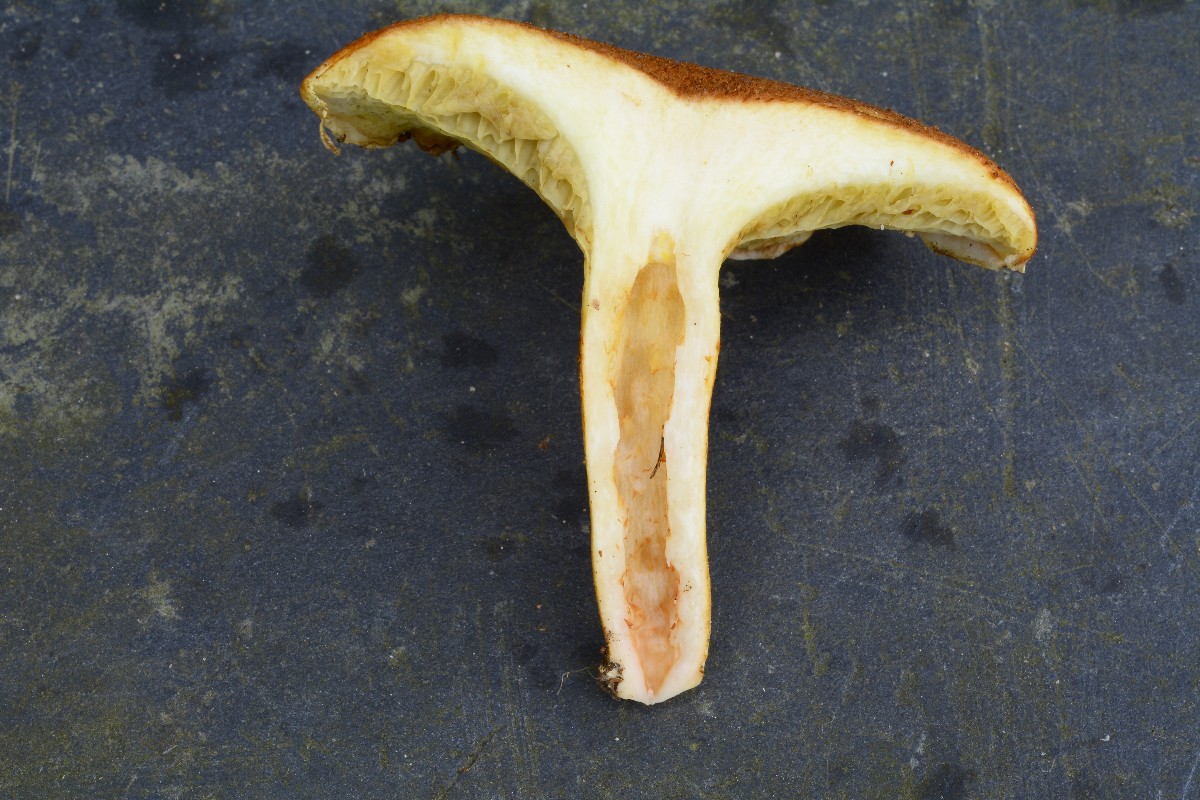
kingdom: Fungi
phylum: Basidiomycota
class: Agaricomycetes
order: Boletales
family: Suillaceae
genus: Suillus
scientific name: Suillus cavipes
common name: hulstokket slimrørhat
